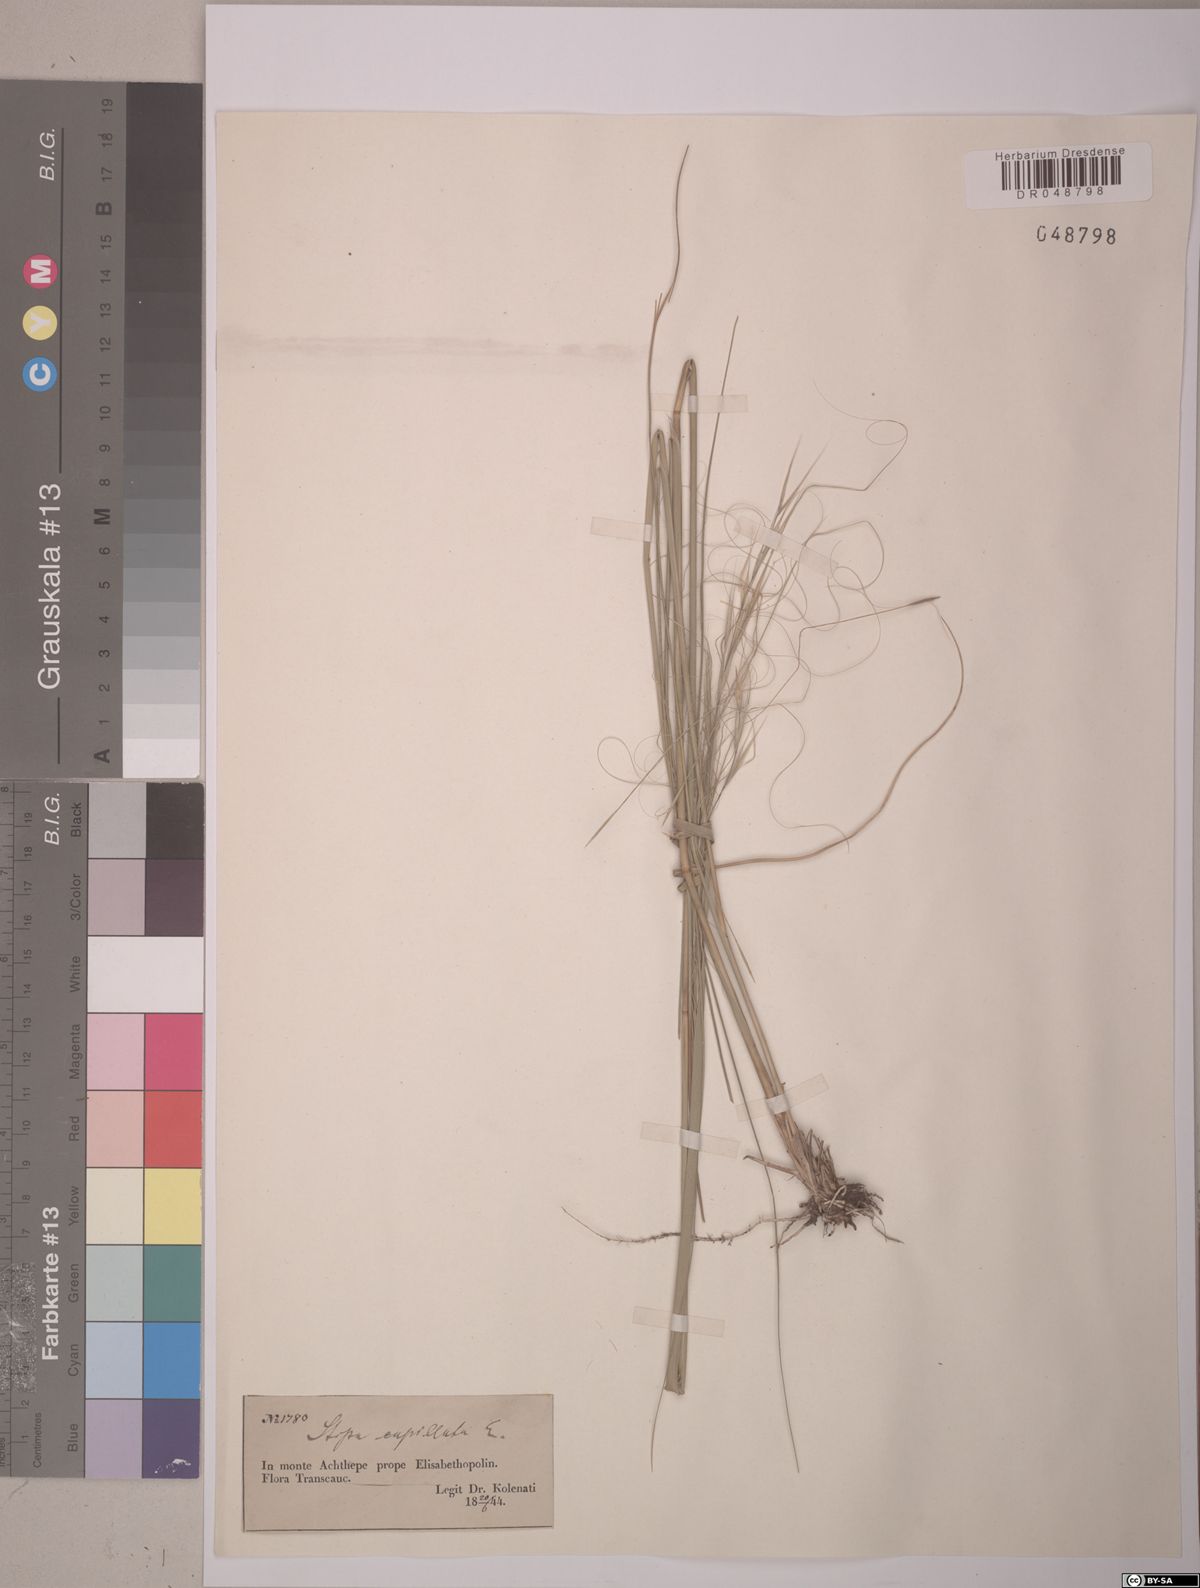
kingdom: Plantae
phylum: Tracheophyta
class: Liliopsida
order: Poales
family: Poaceae
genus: Stipa
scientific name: Stipa capillata
